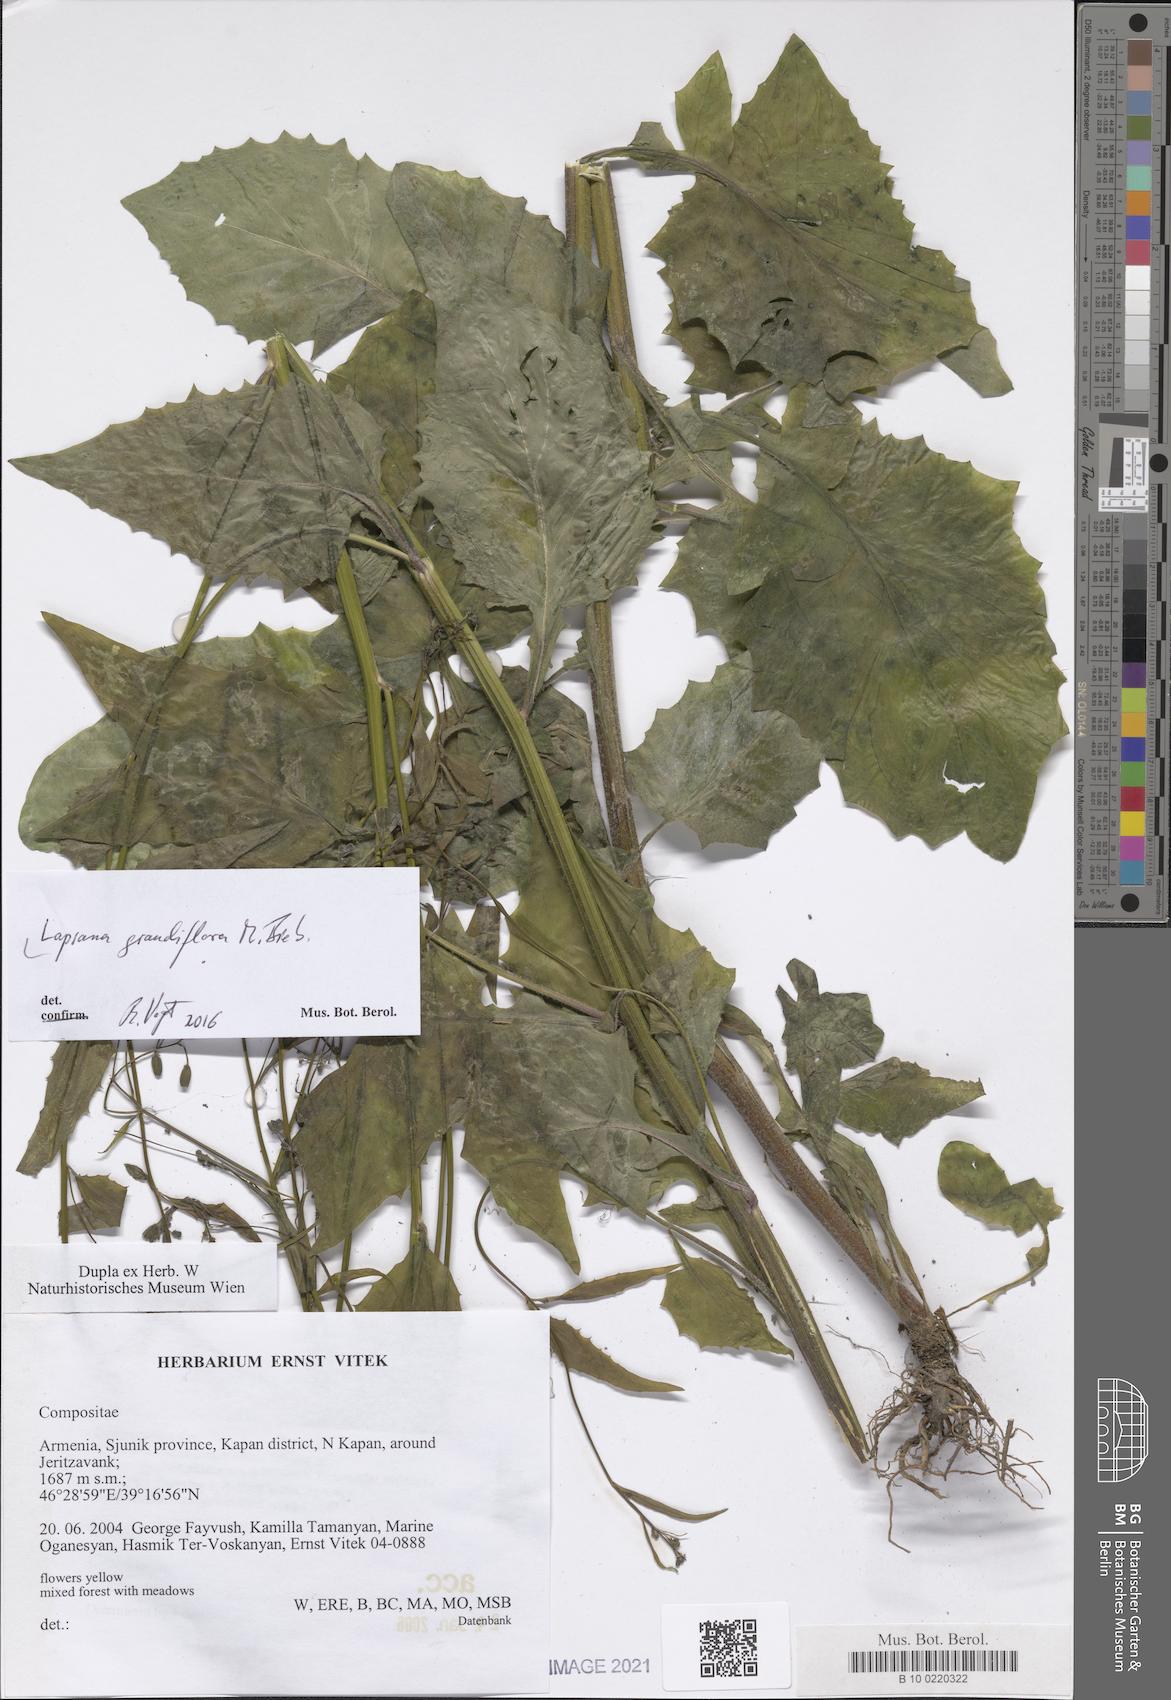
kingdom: Plantae
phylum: Tracheophyta
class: Magnoliopsida
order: Asterales
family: Asteraceae
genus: Lapsana
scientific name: Lapsana communis
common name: Nipplewort
